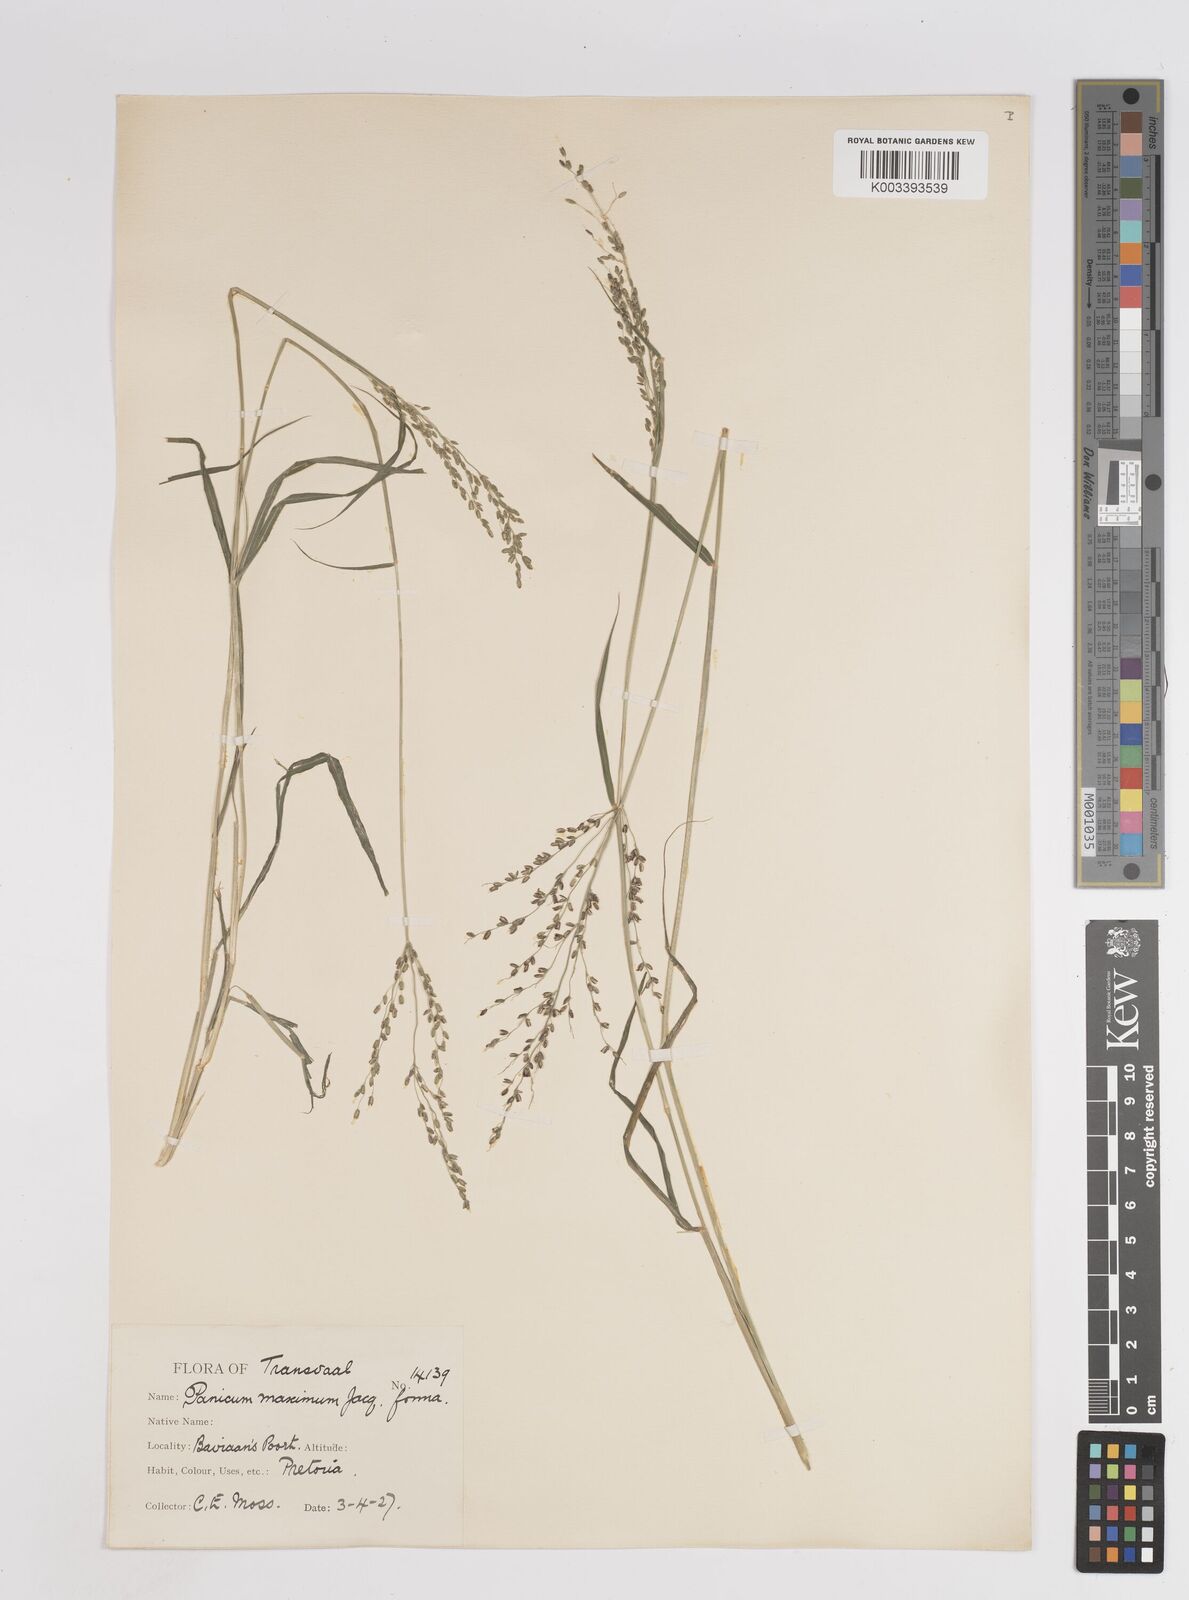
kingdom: Plantae
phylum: Tracheophyta
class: Liliopsida
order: Poales
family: Poaceae
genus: Megathyrsus
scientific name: Megathyrsus maximus
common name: Guineagrass
